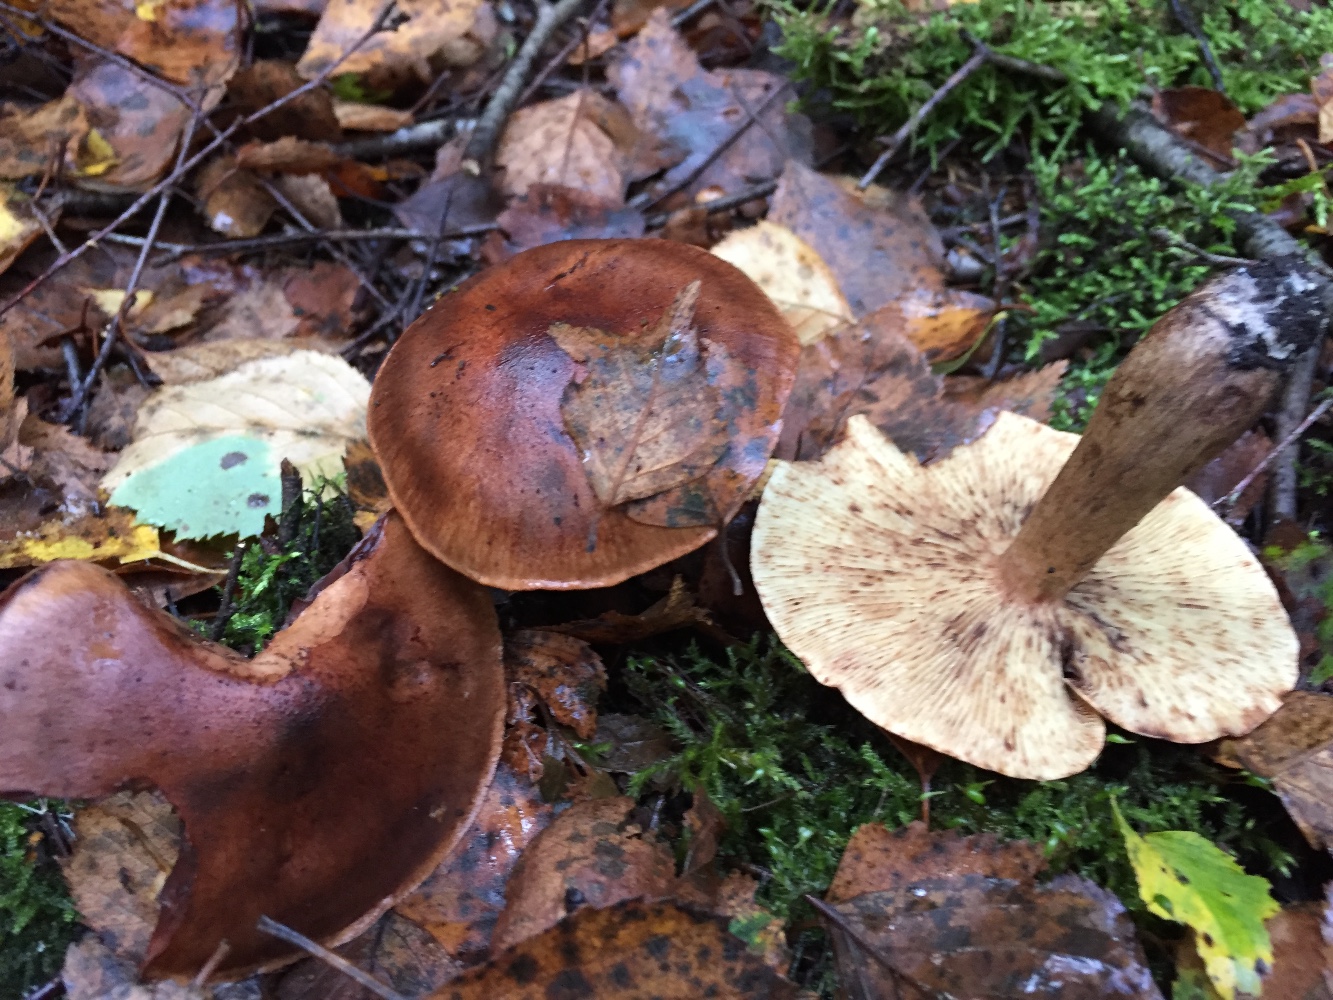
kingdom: Fungi
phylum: Basidiomycota
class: Agaricomycetes
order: Agaricales
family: Tricholomataceae
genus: Tricholoma
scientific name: Tricholoma fulvum
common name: birke-ridderhat
